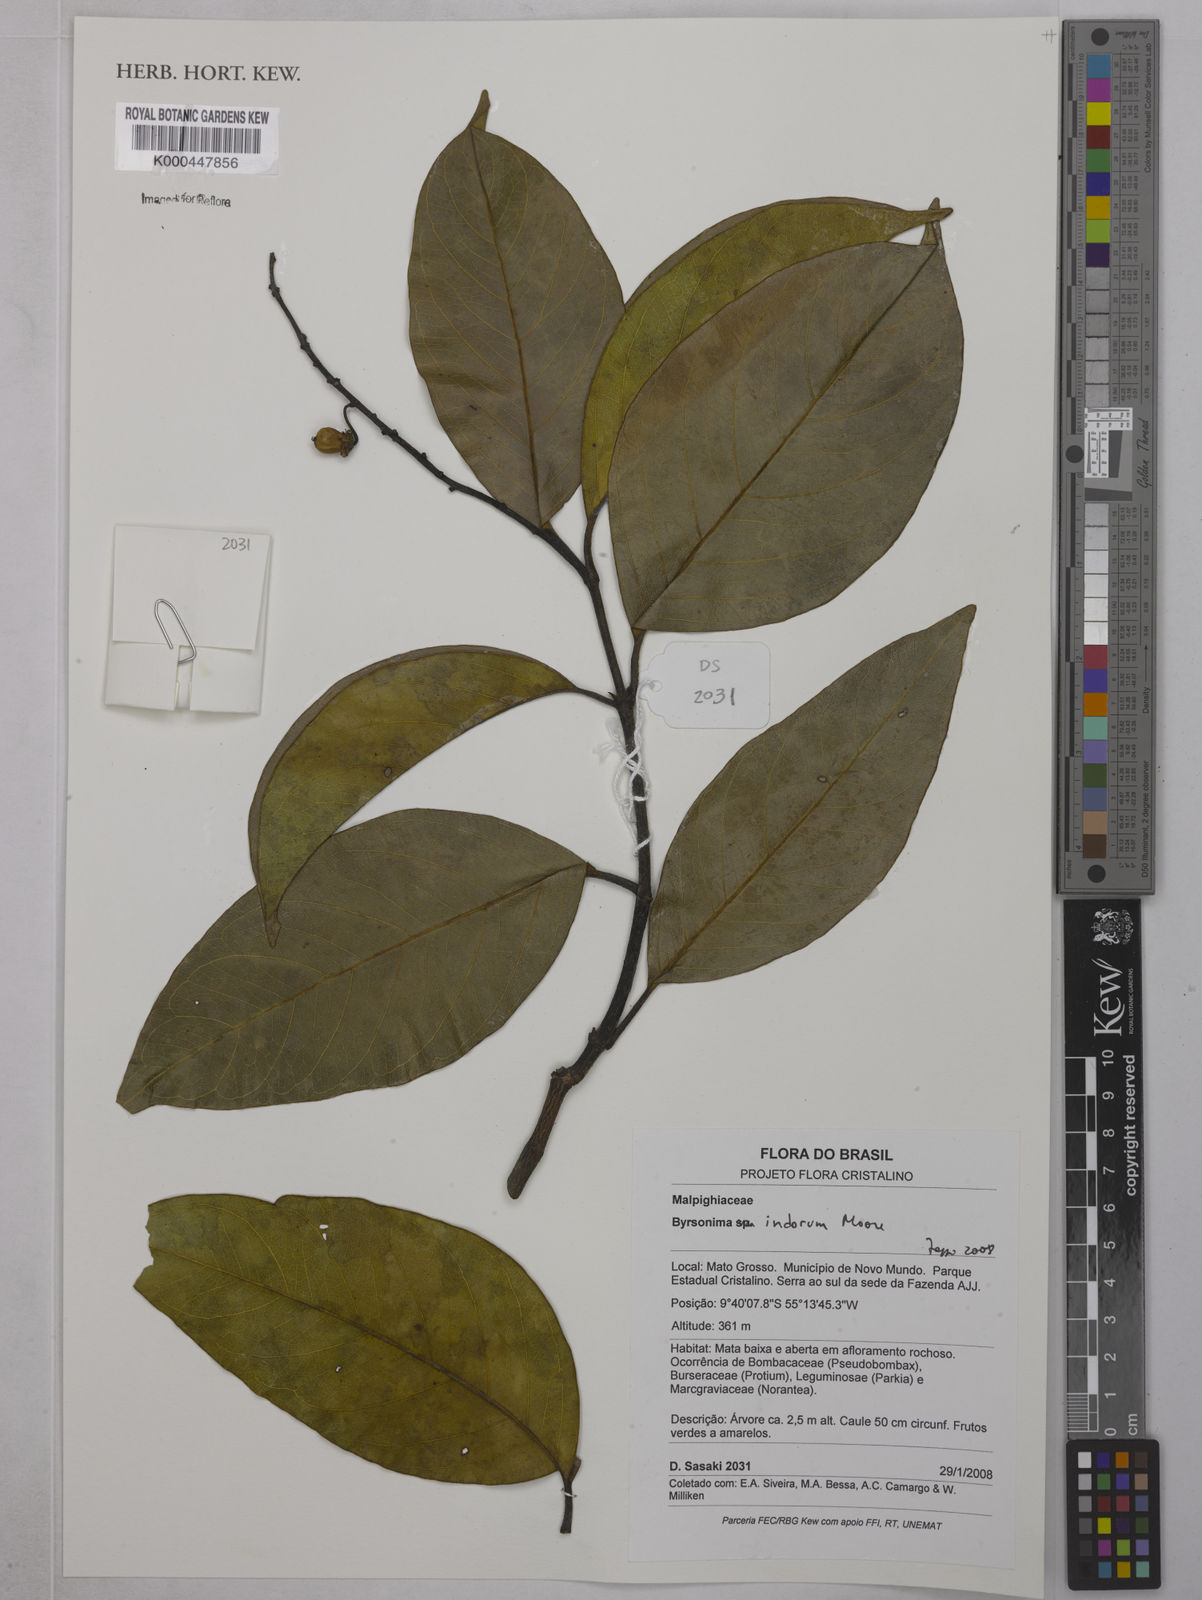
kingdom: Plantae
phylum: Tracheophyta
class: Magnoliopsida
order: Malpighiales
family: Malpighiaceae
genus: Byrsonima
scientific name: Byrsonima arthropoda
